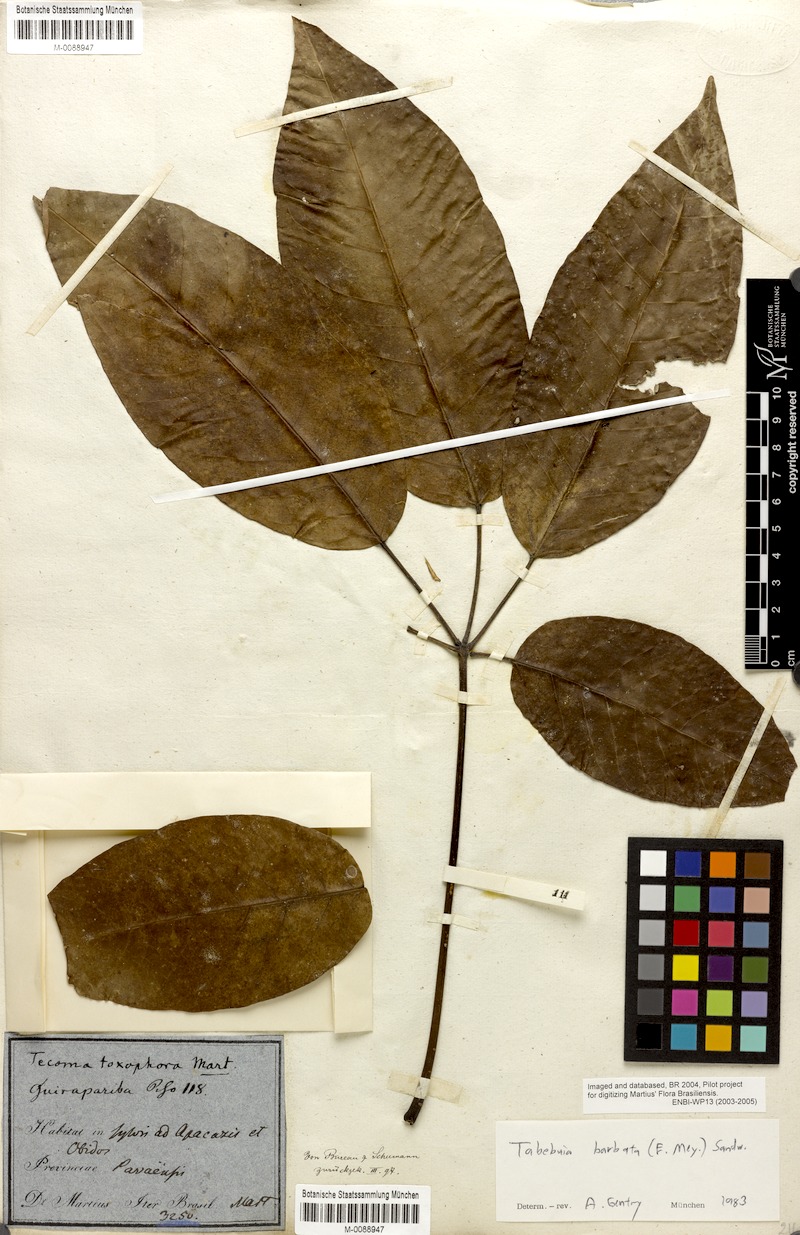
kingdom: Plantae
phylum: Tracheophyta
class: Magnoliopsida
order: Lamiales
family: Bignoniaceae
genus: Handroanthus
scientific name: Handroanthus barbatus
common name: Trumpet trees
